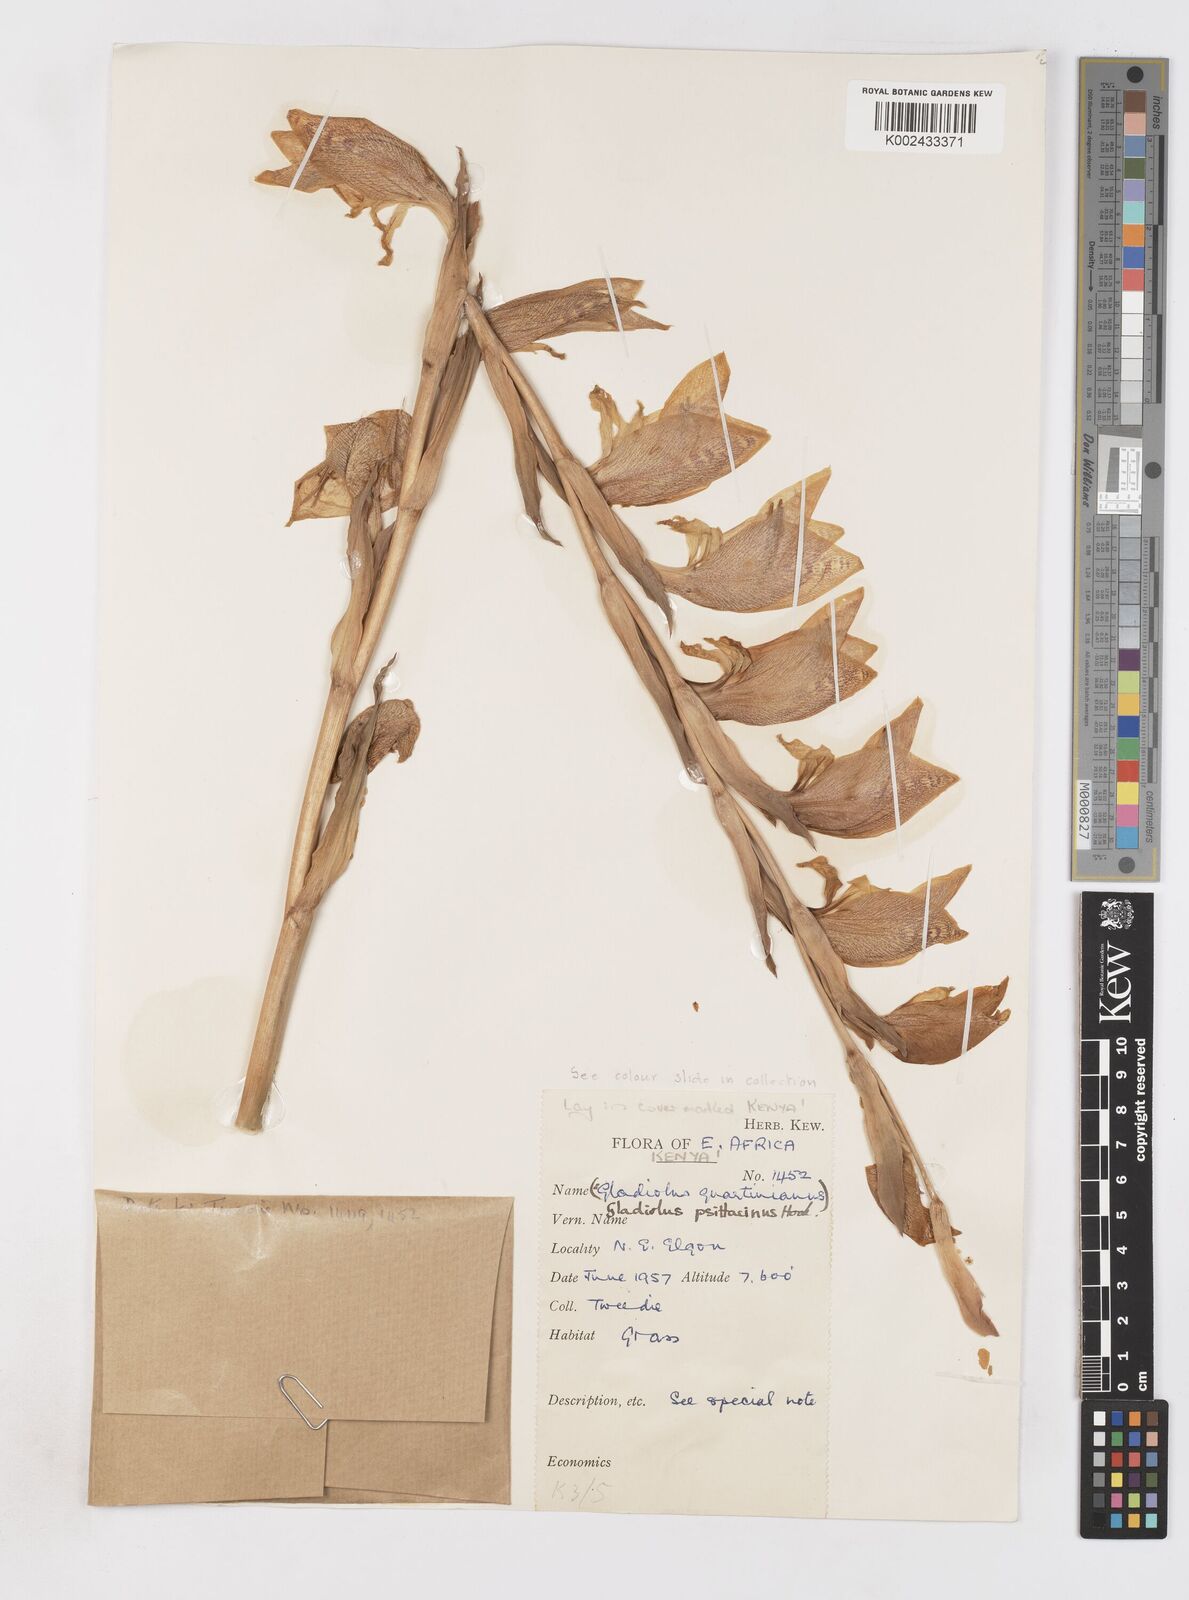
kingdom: Plantae
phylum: Tracheophyta
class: Liliopsida
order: Asparagales
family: Iridaceae
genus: Gladiolus
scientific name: Gladiolus dalenii
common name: Cornflag
